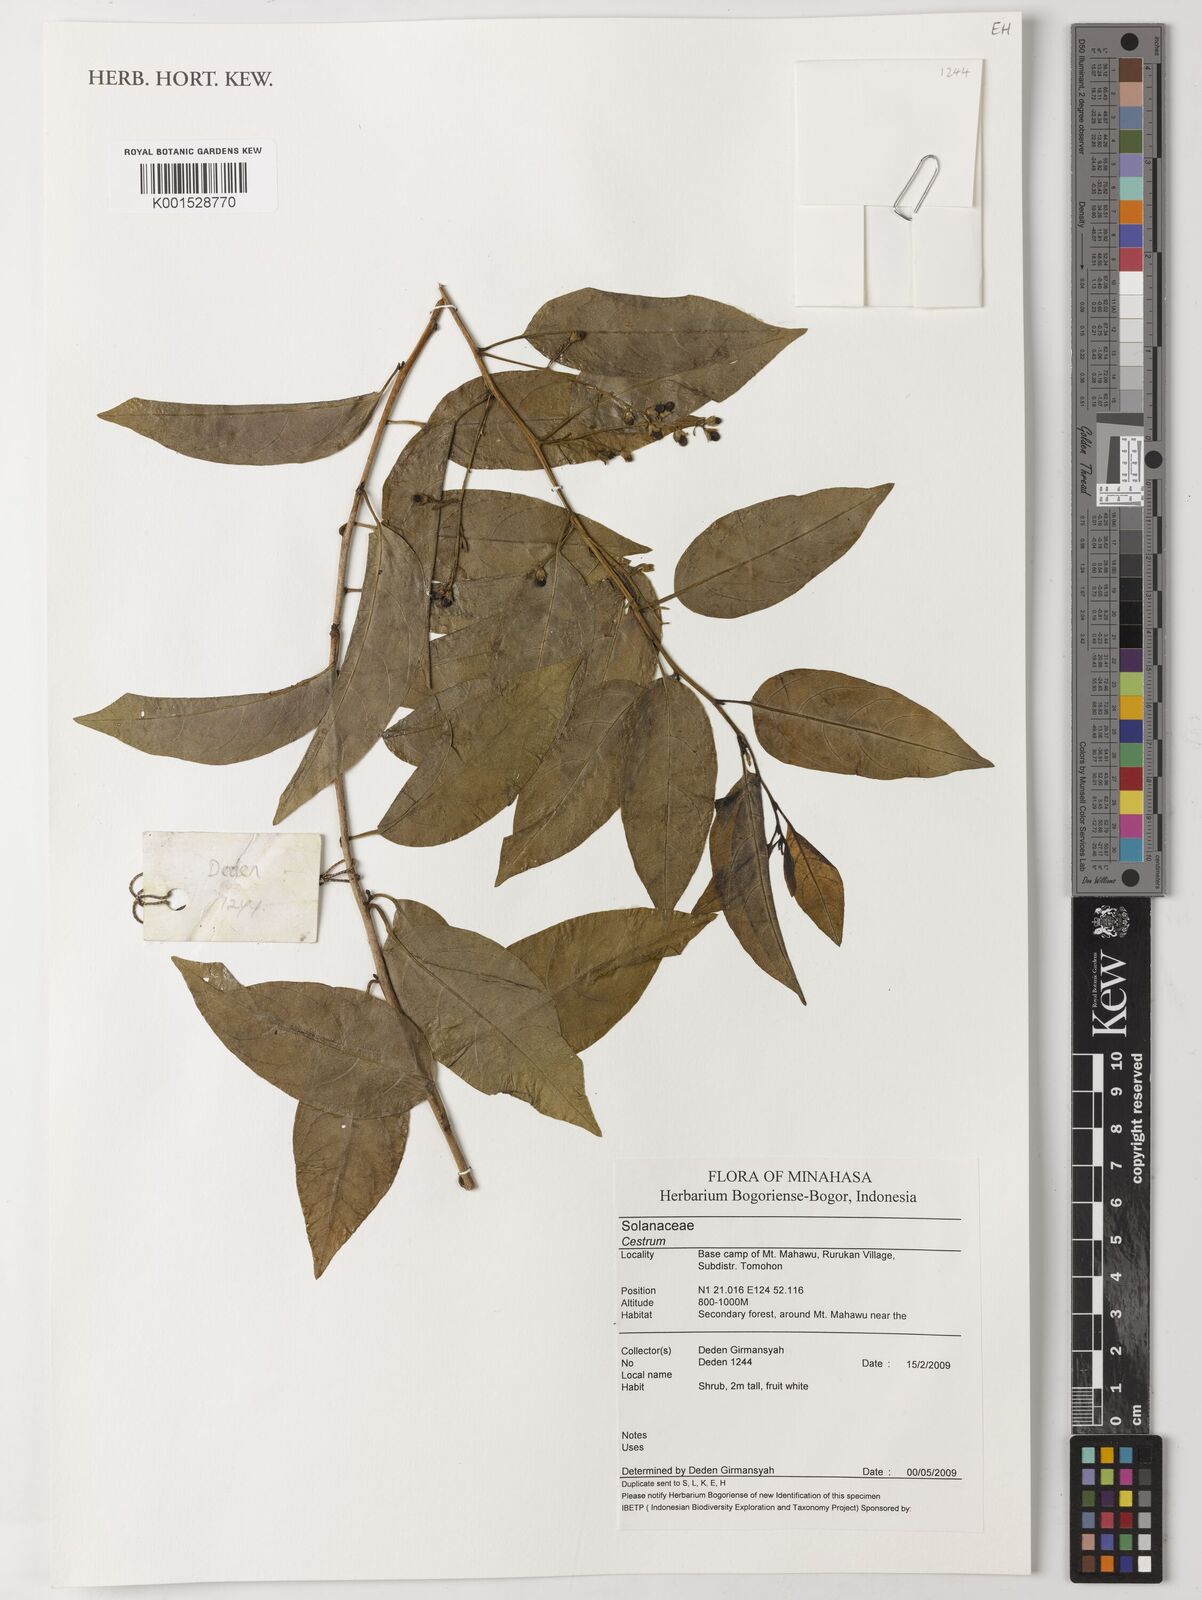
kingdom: Plantae
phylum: Tracheophyta
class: Magnoliopsida
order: Solanales
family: Solanaceae
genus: Cestrum
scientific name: Cestrum
